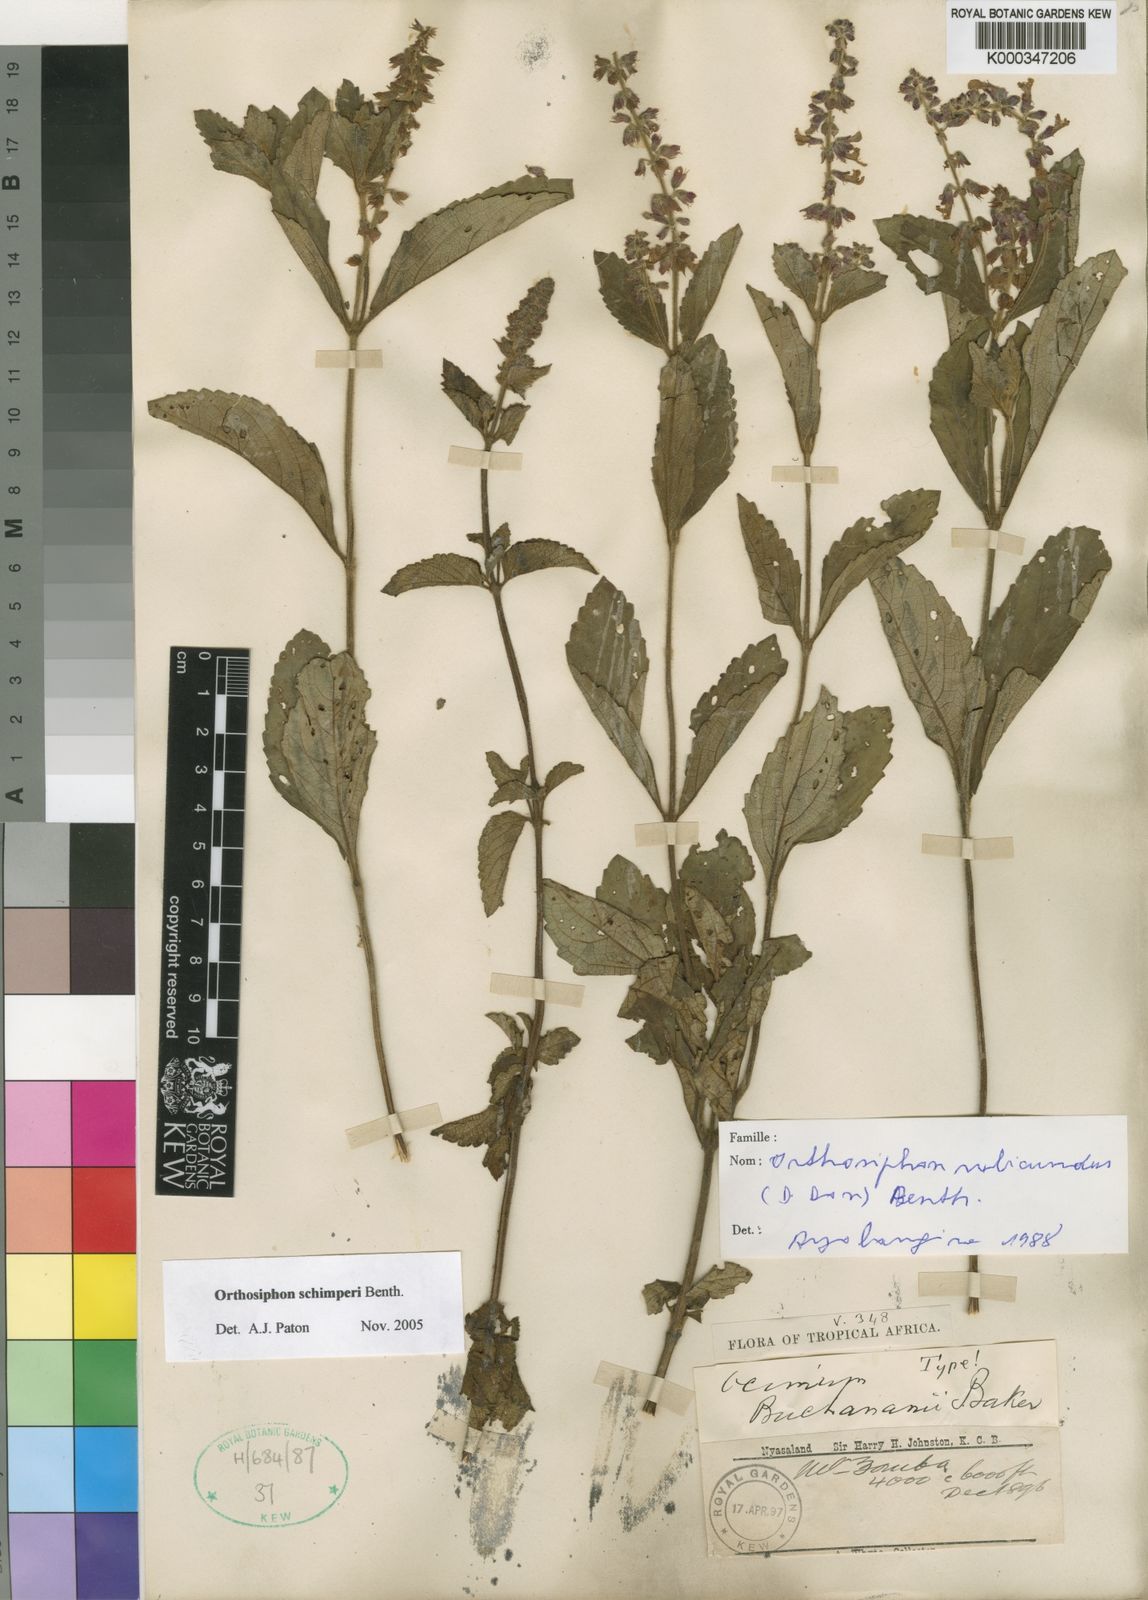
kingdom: Plantae
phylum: Tracheophyta
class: Magnoliopsida
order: Lamiales
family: Lamiaceae
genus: Orthosiphon
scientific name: Orthosiphon schimperi
